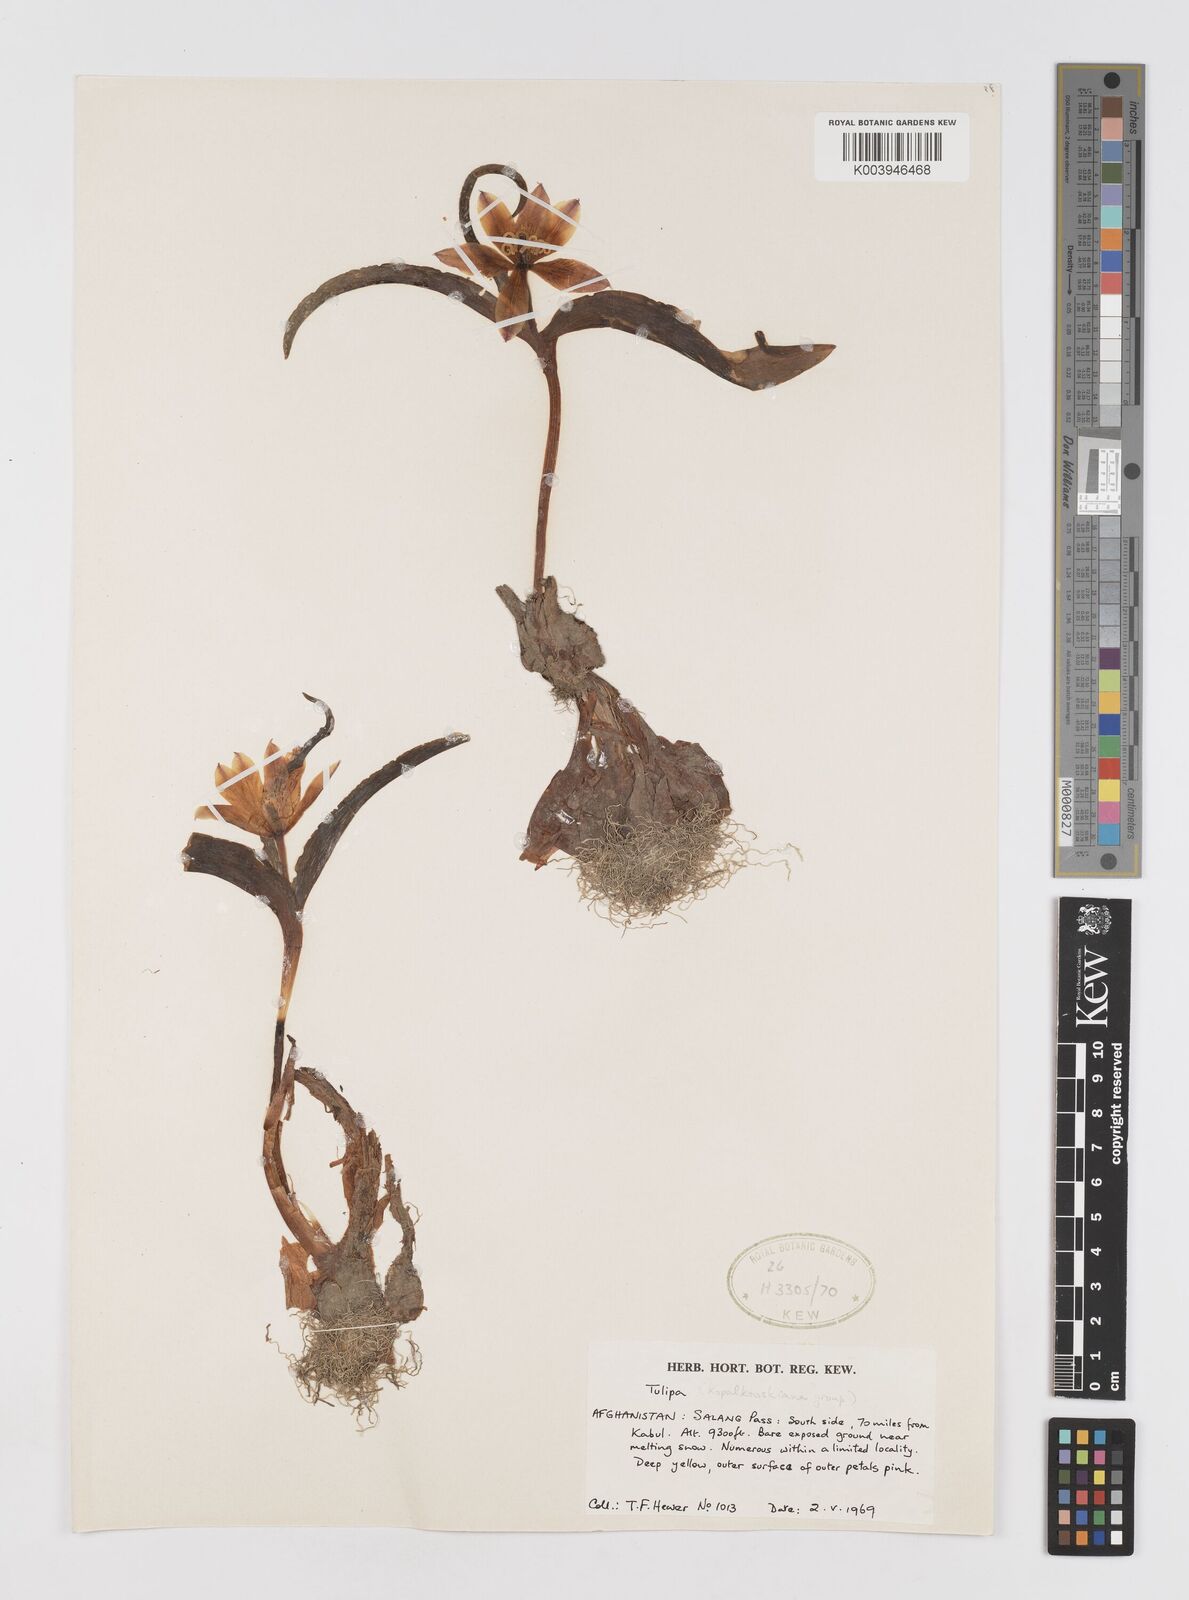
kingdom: Plantae
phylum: Tracheophyta
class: Liliopsida
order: Liliales
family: Liliaceae
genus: Tulipa
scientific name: Tulipa
